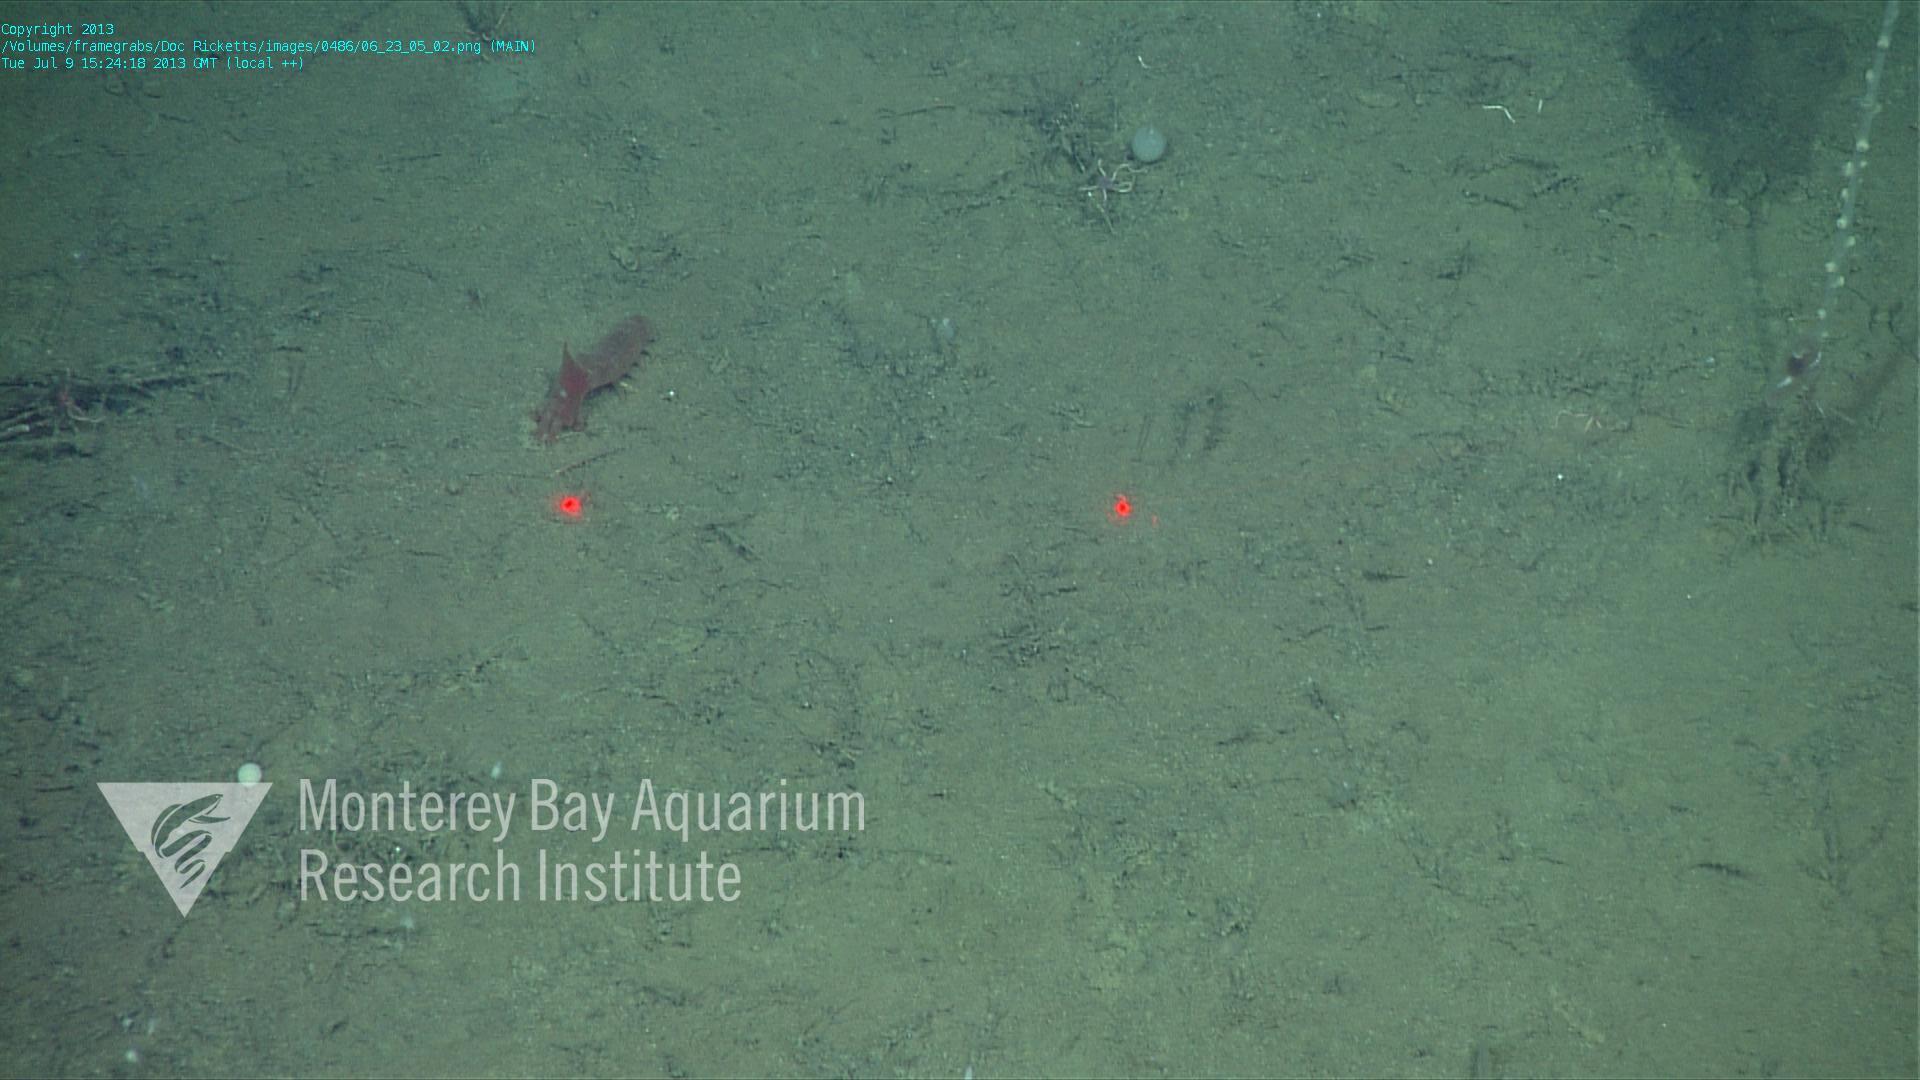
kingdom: Animalia
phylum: Porifera
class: Demospongiae
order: Poecilosclerida
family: Cladorhizidae
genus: Cladorhiza
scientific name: Cladorhiza
